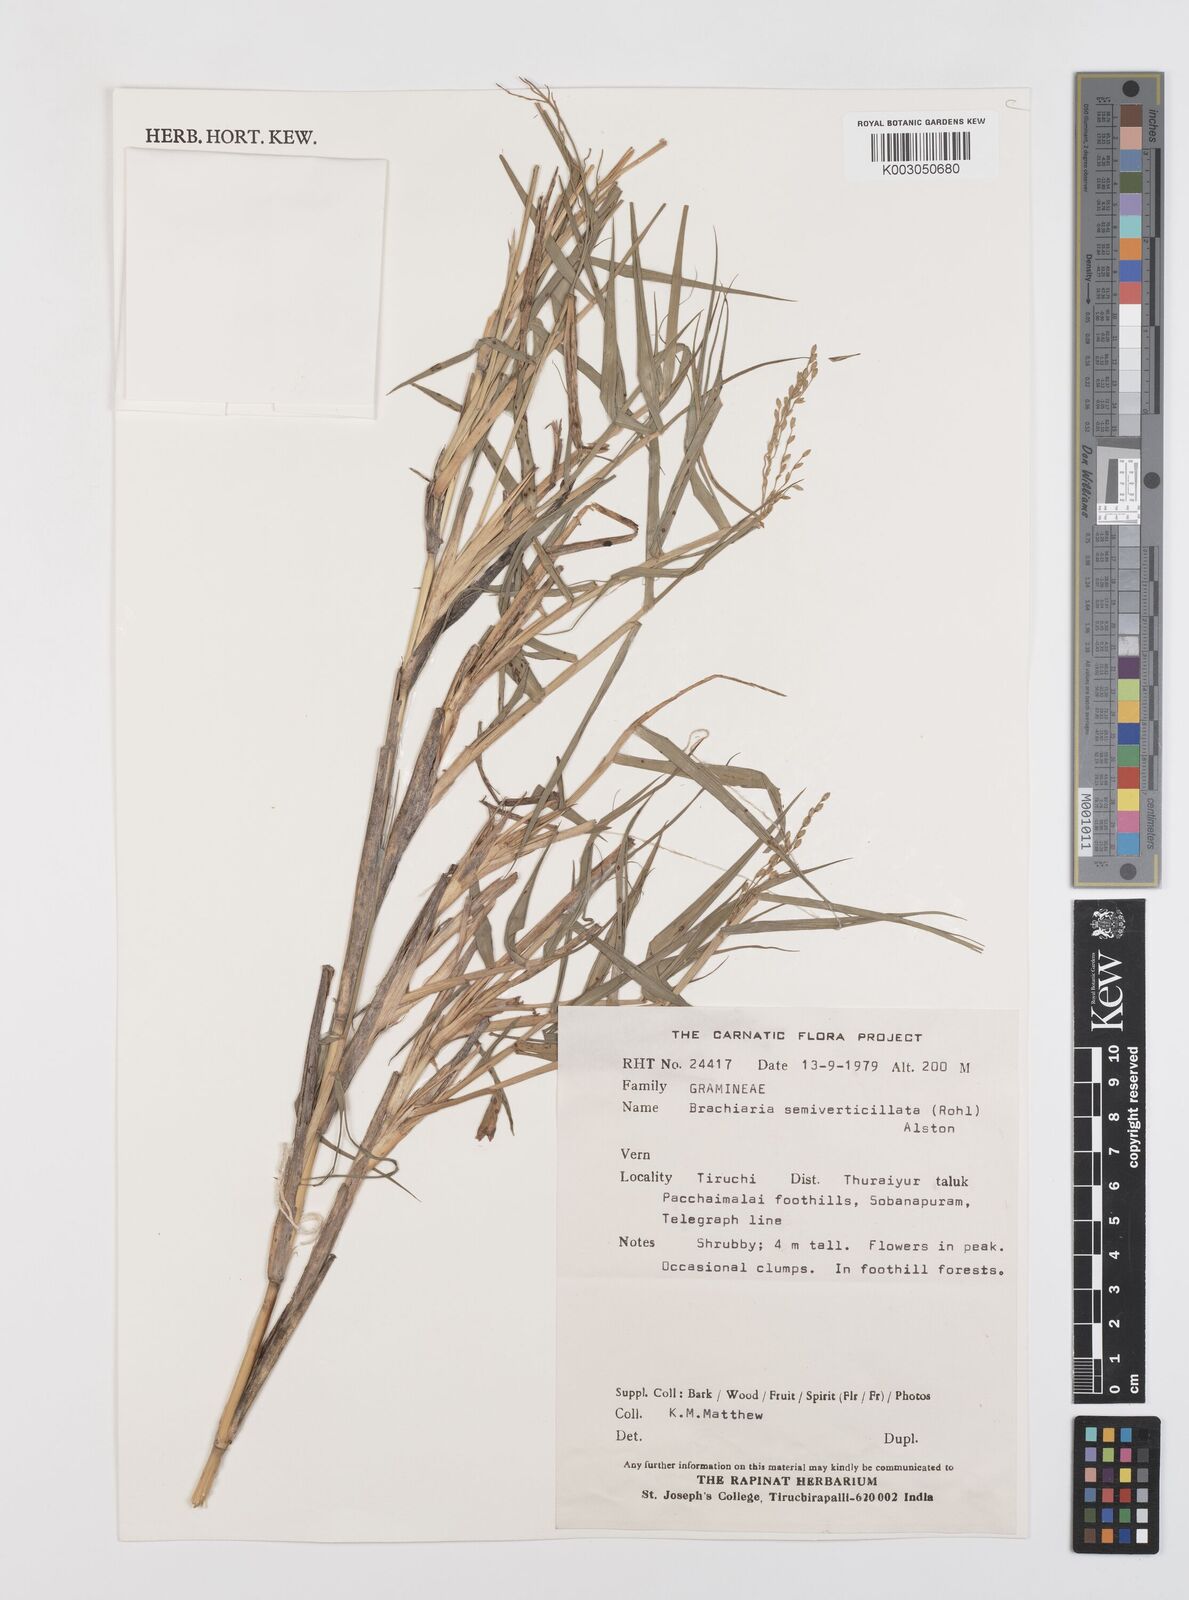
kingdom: Plantae
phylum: Tracheophyta
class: Liliopsida
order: Poales
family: Poaceae
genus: Urochloa
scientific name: Urochloa Brachiaria semiverticillata
